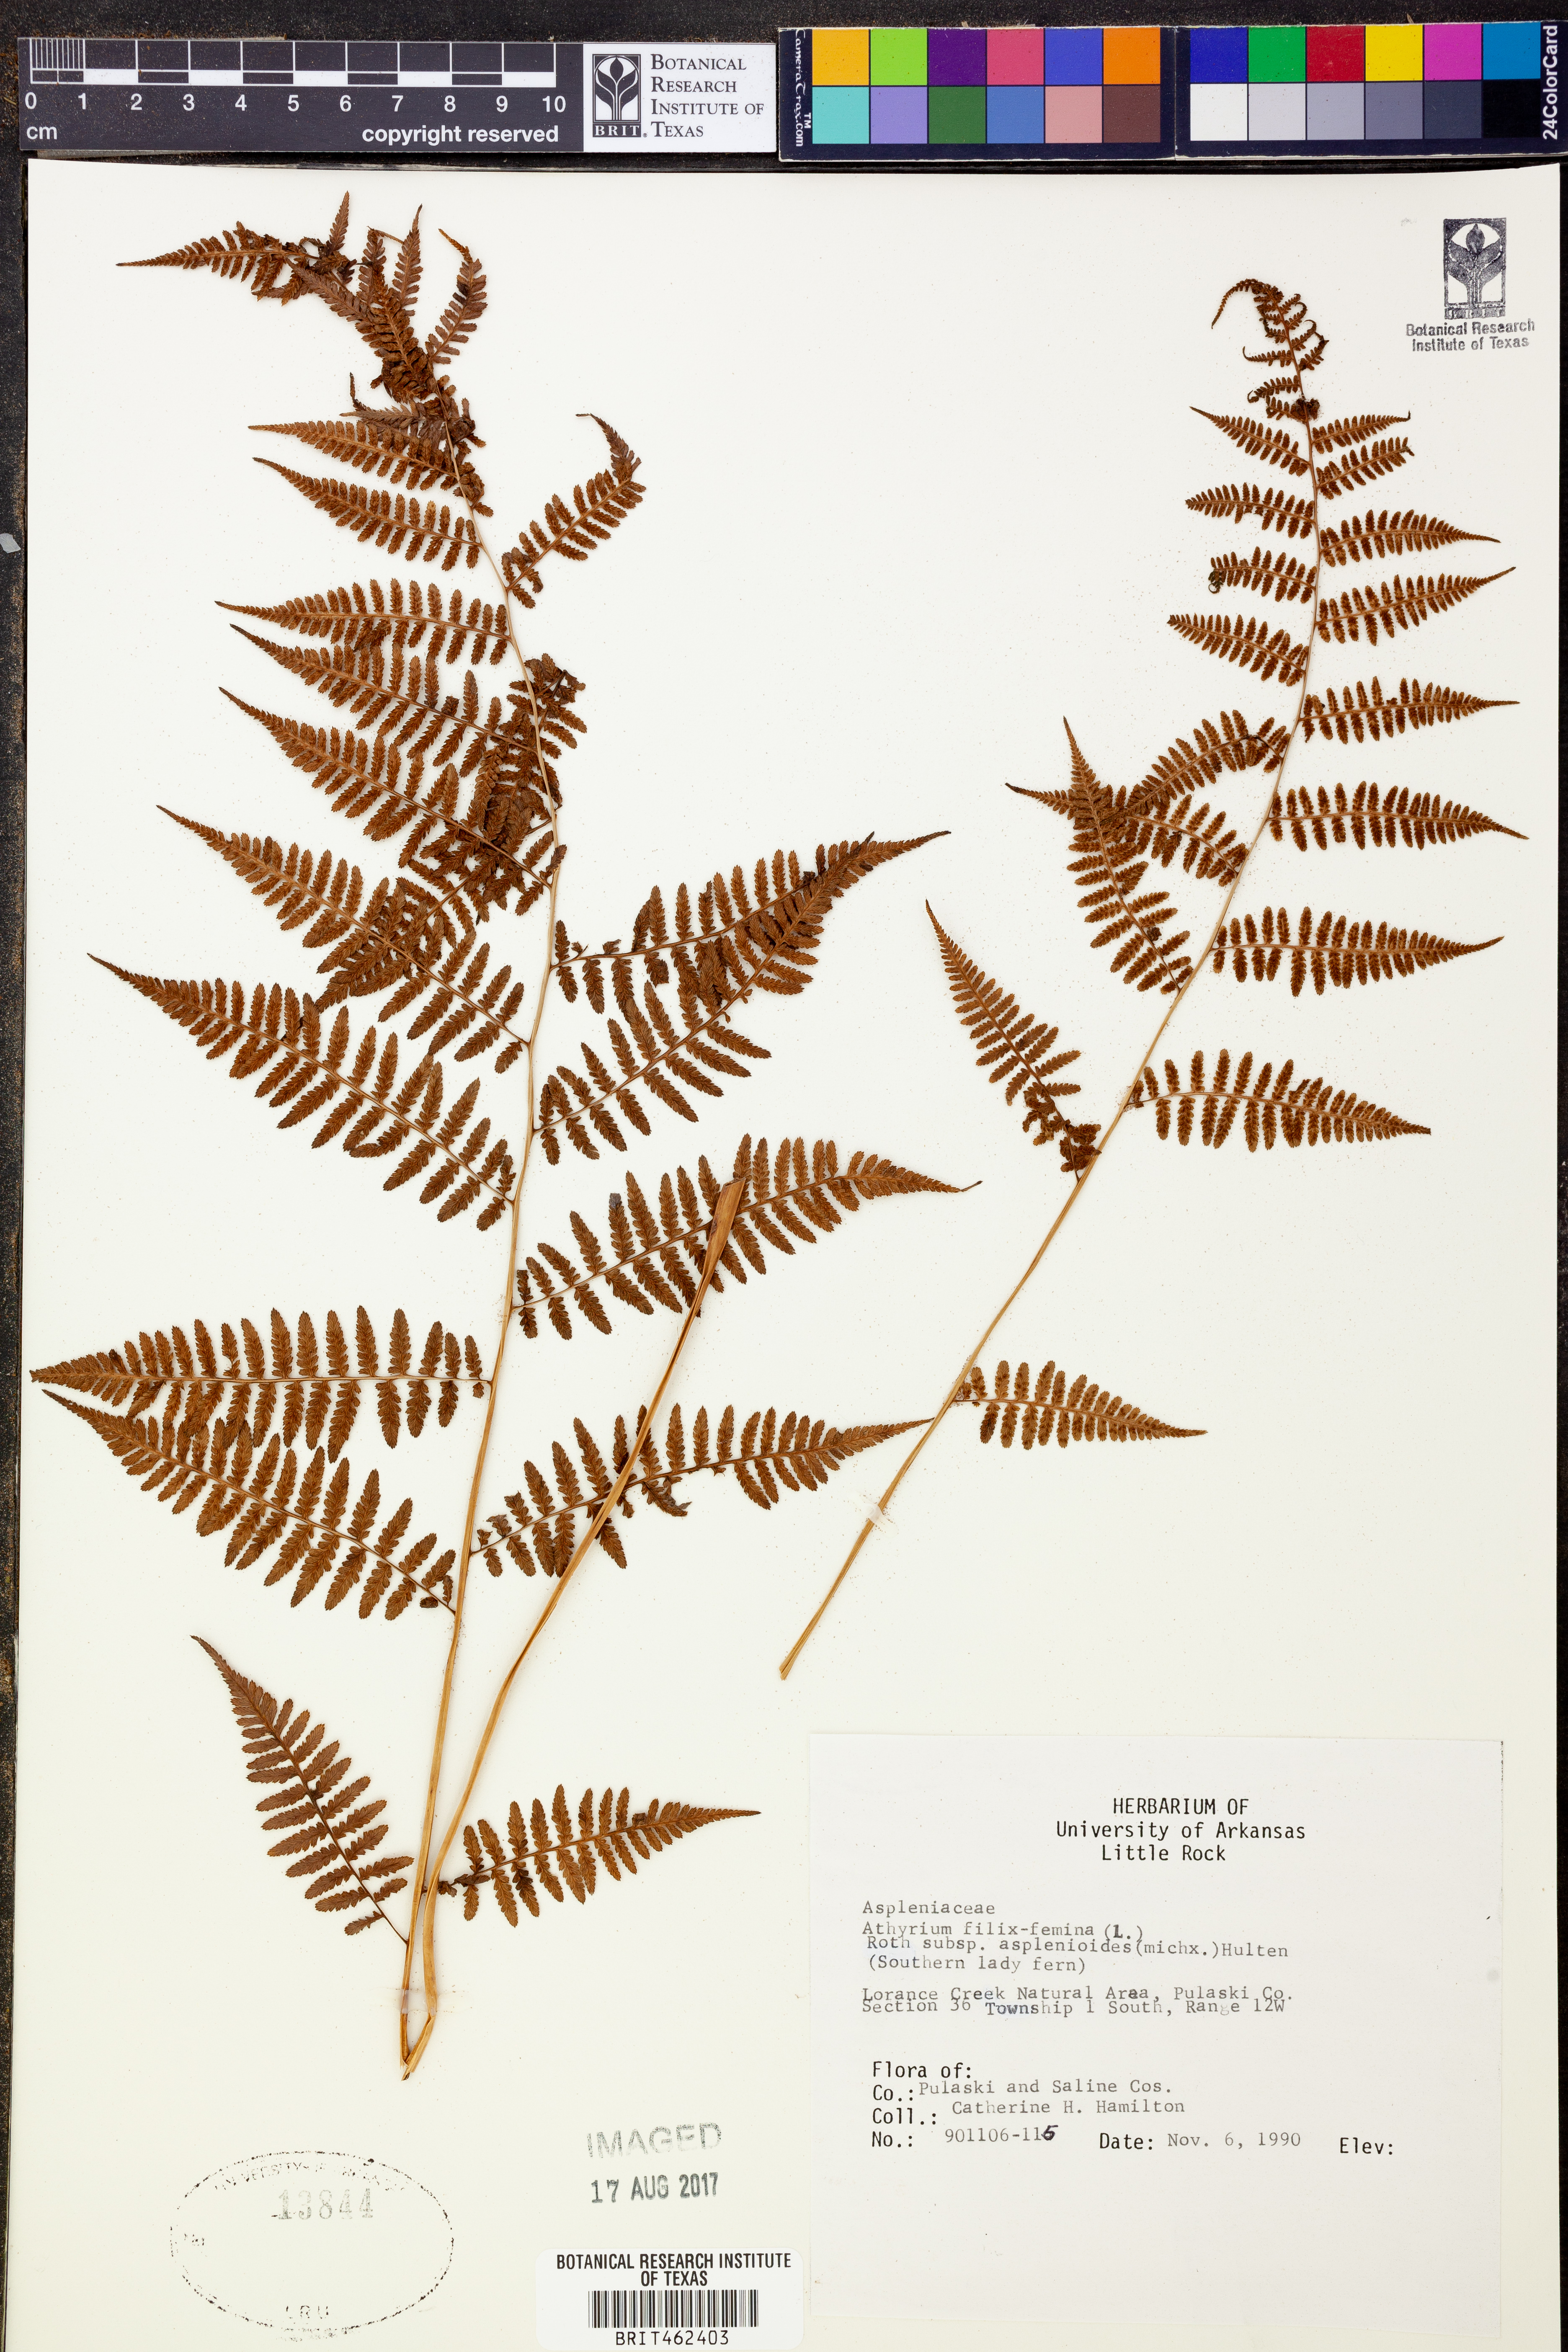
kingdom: Plantae
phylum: Tracheophyta
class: Polypodiopsida
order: Polypodiales
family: Athyriaceae
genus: Athyrium
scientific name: Athyrium asplenioides
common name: Southern lady fern
